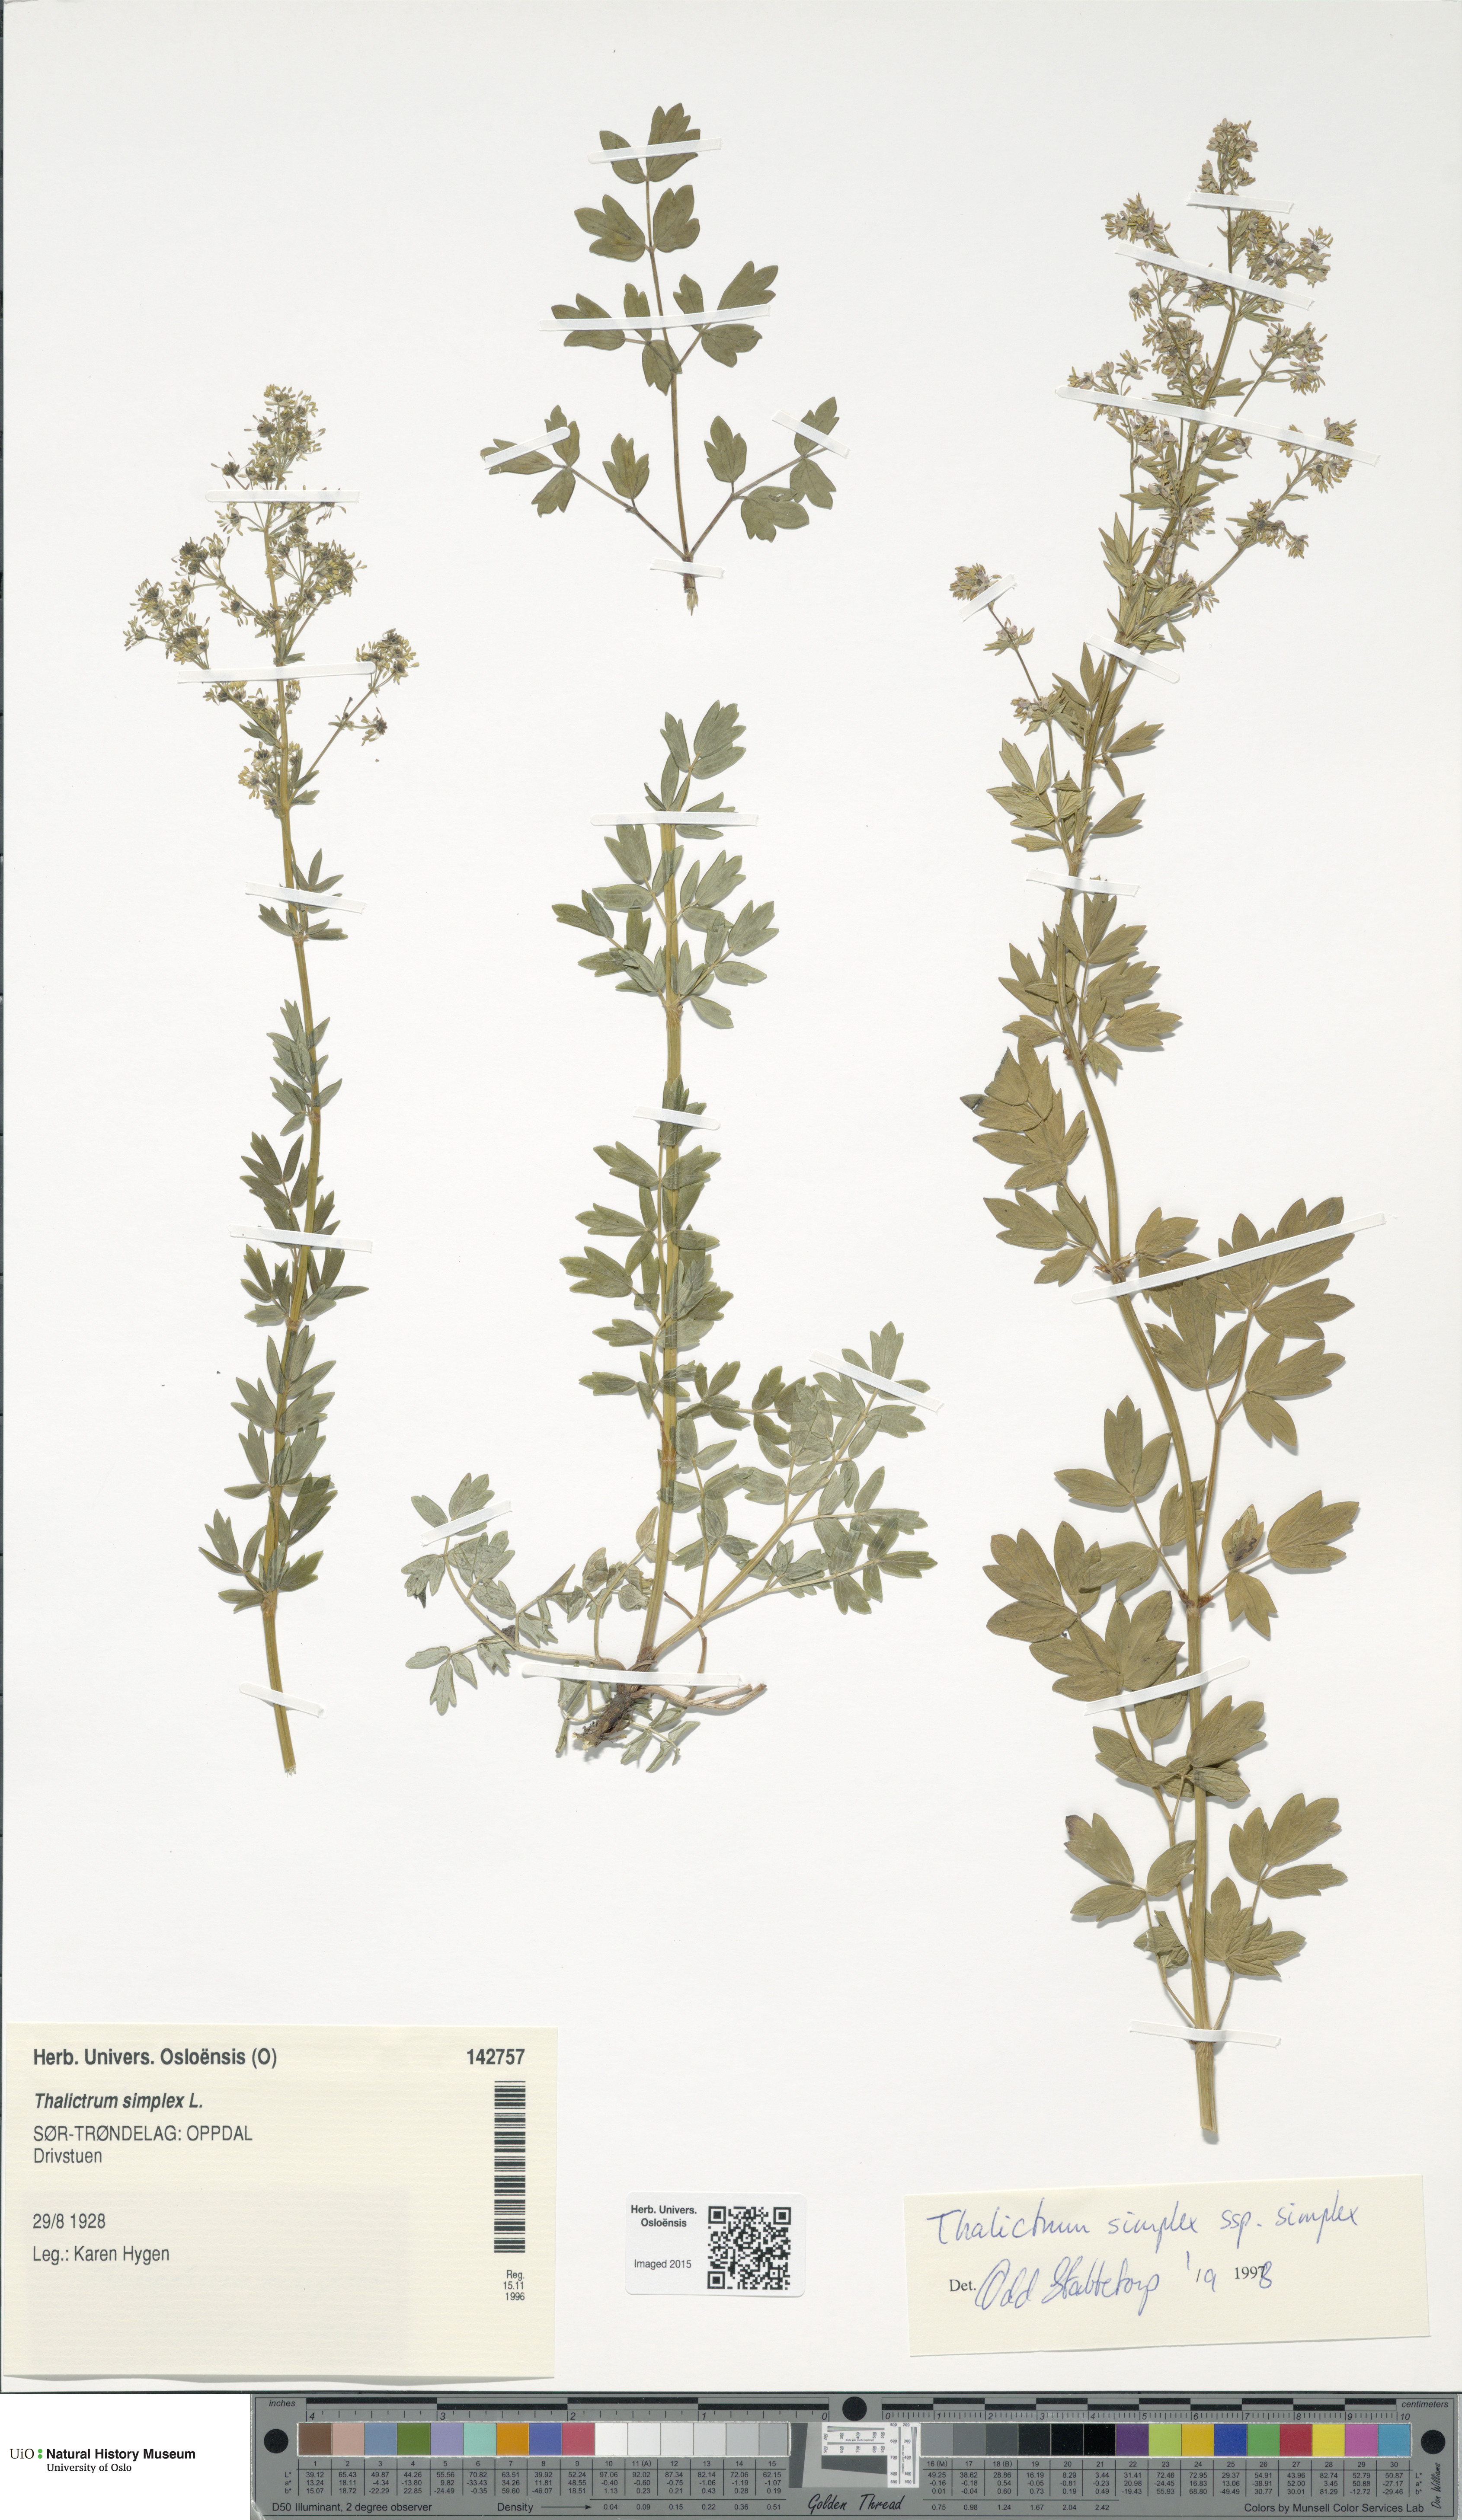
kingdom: Plantae
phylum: Tracheophyta
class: Magnoliopsida
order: Ranunculales
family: Ranunculaceae
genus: Thalictrum
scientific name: Thalictrum simplex
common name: Small meadow-rue
